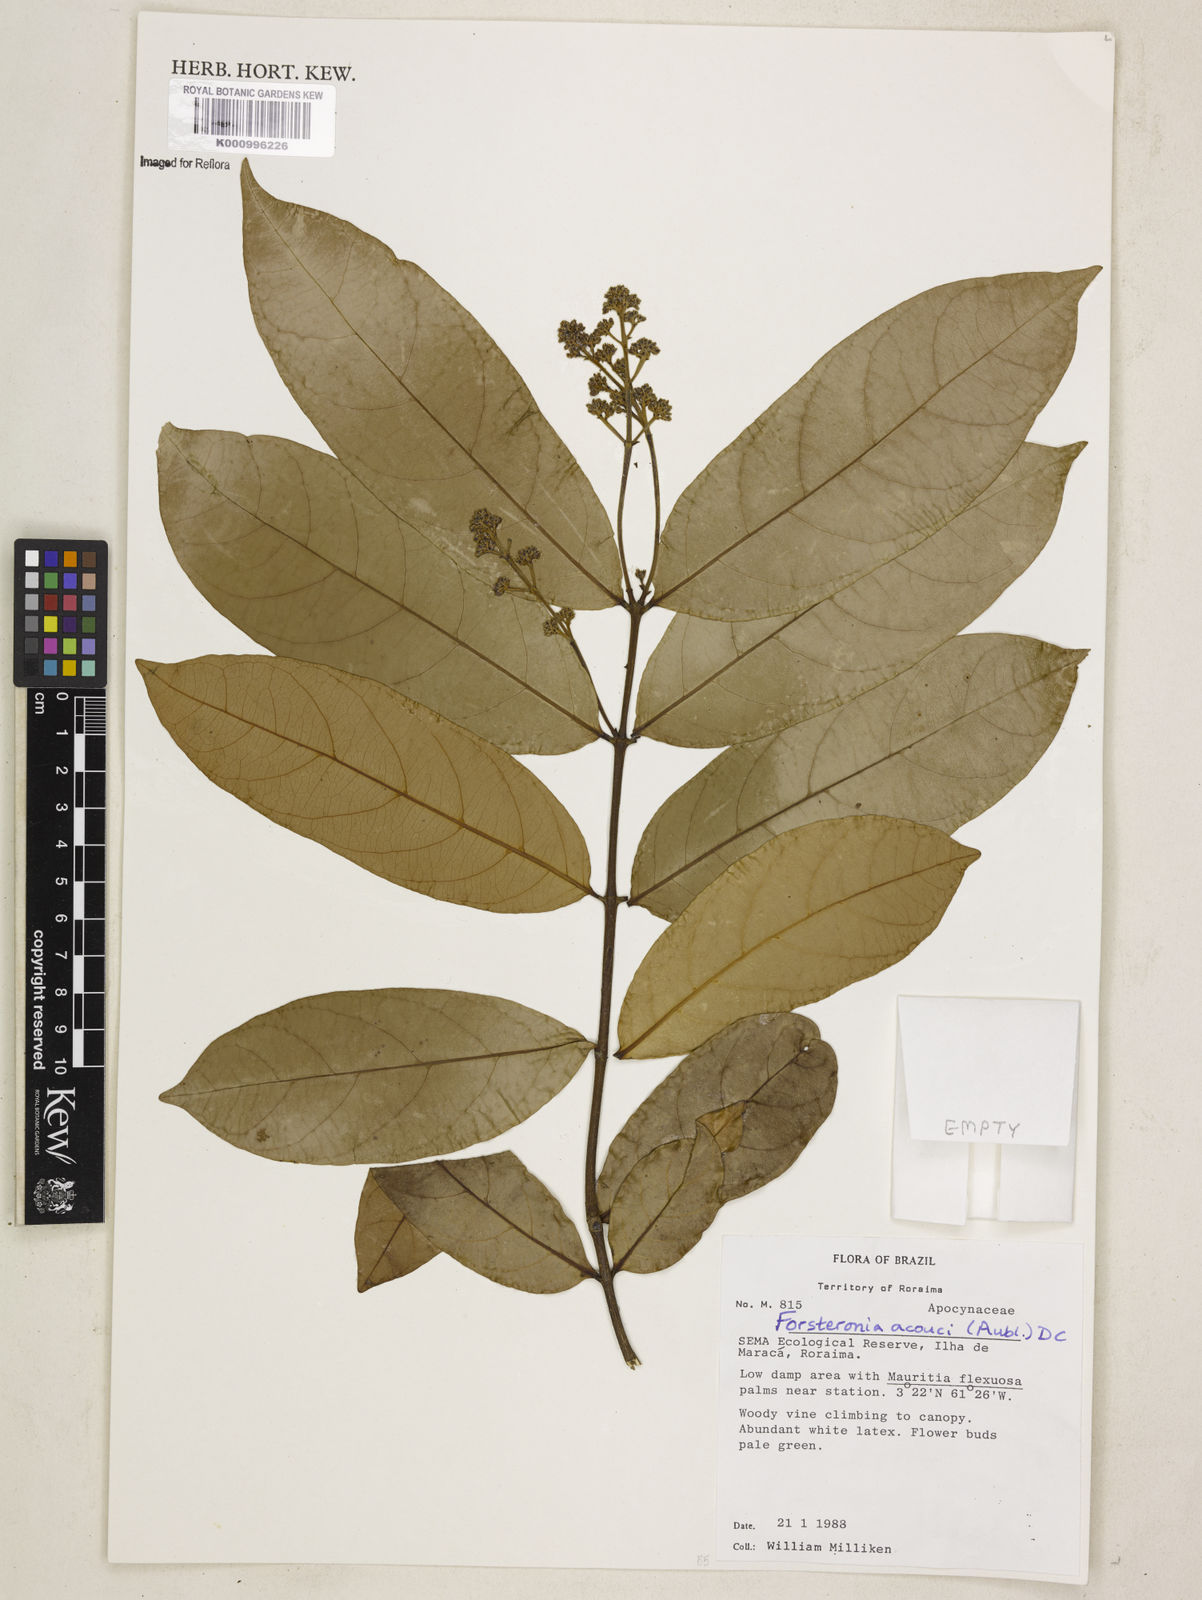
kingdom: Plantae
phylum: Tracheophyta
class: Magnoliopsida
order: Gentianales
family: Apocynaceae
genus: Forsteronia
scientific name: Forsteronia acouci
